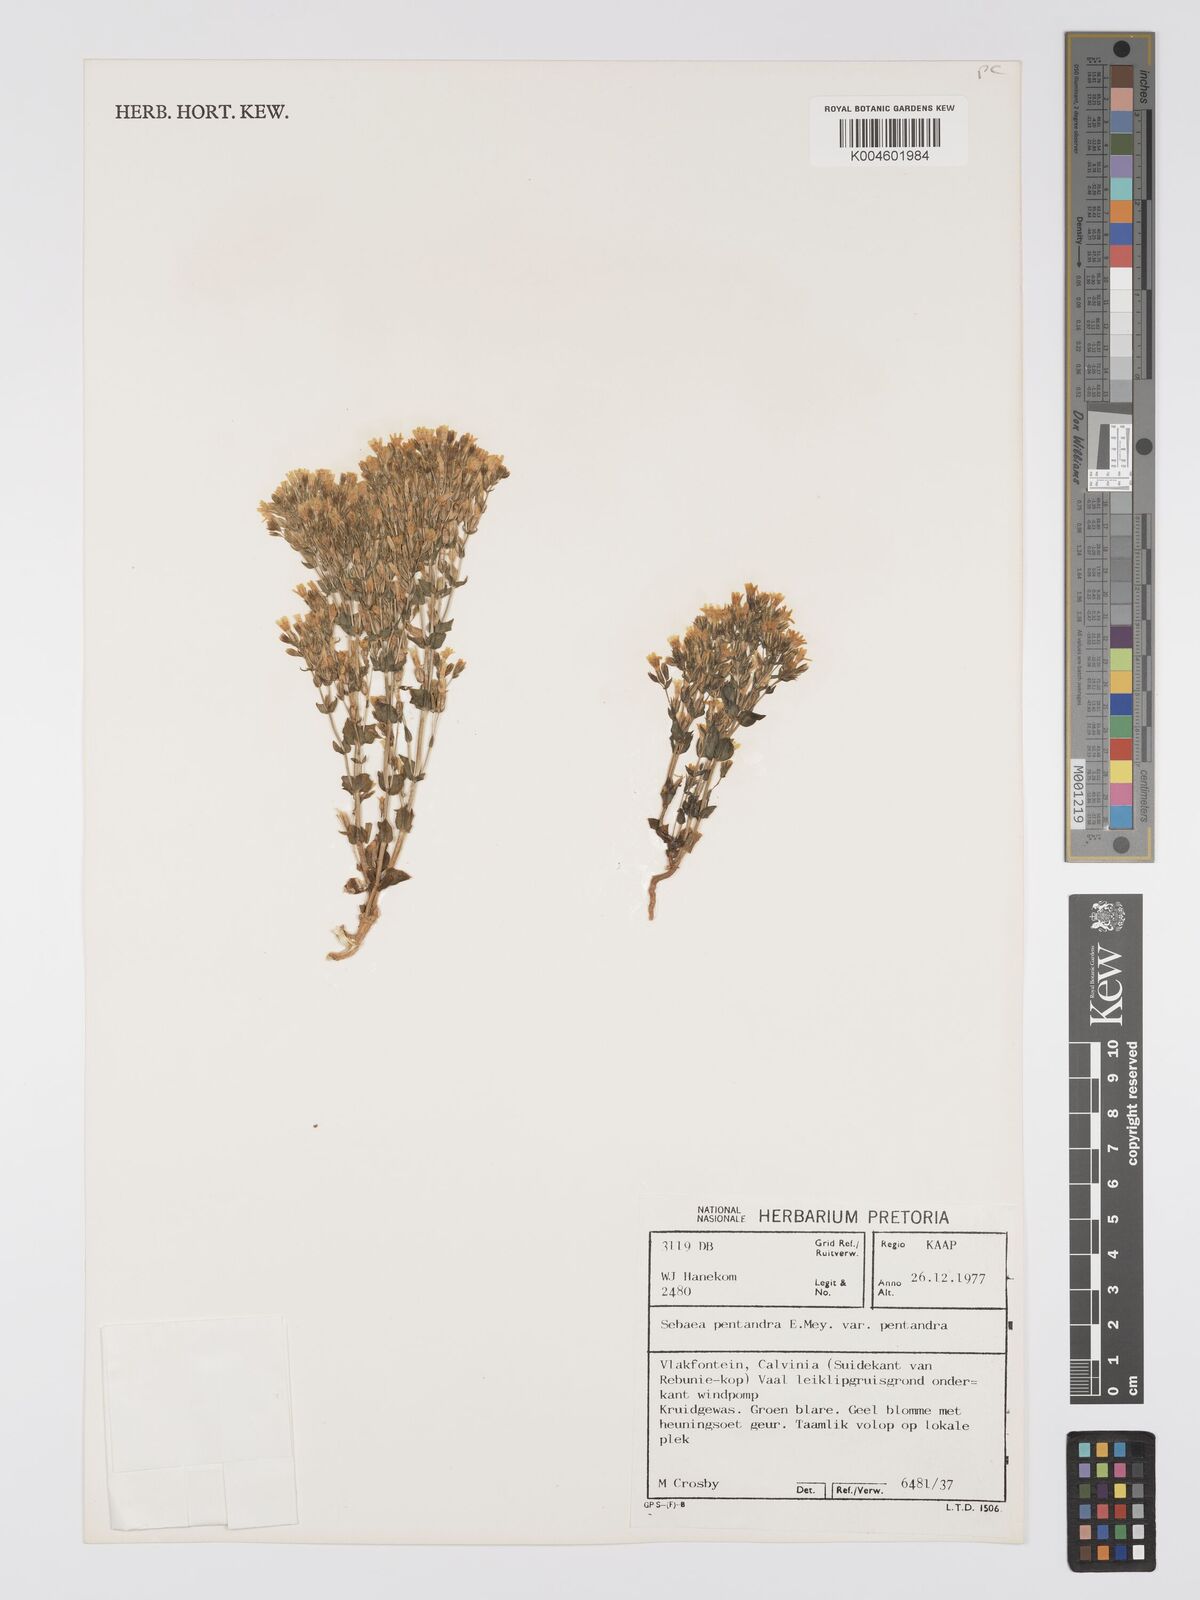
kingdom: Plantae
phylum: Tracheophyta
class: Magnoliopsida
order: Gentianales
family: Gentianaceae
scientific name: Gentianaceae
